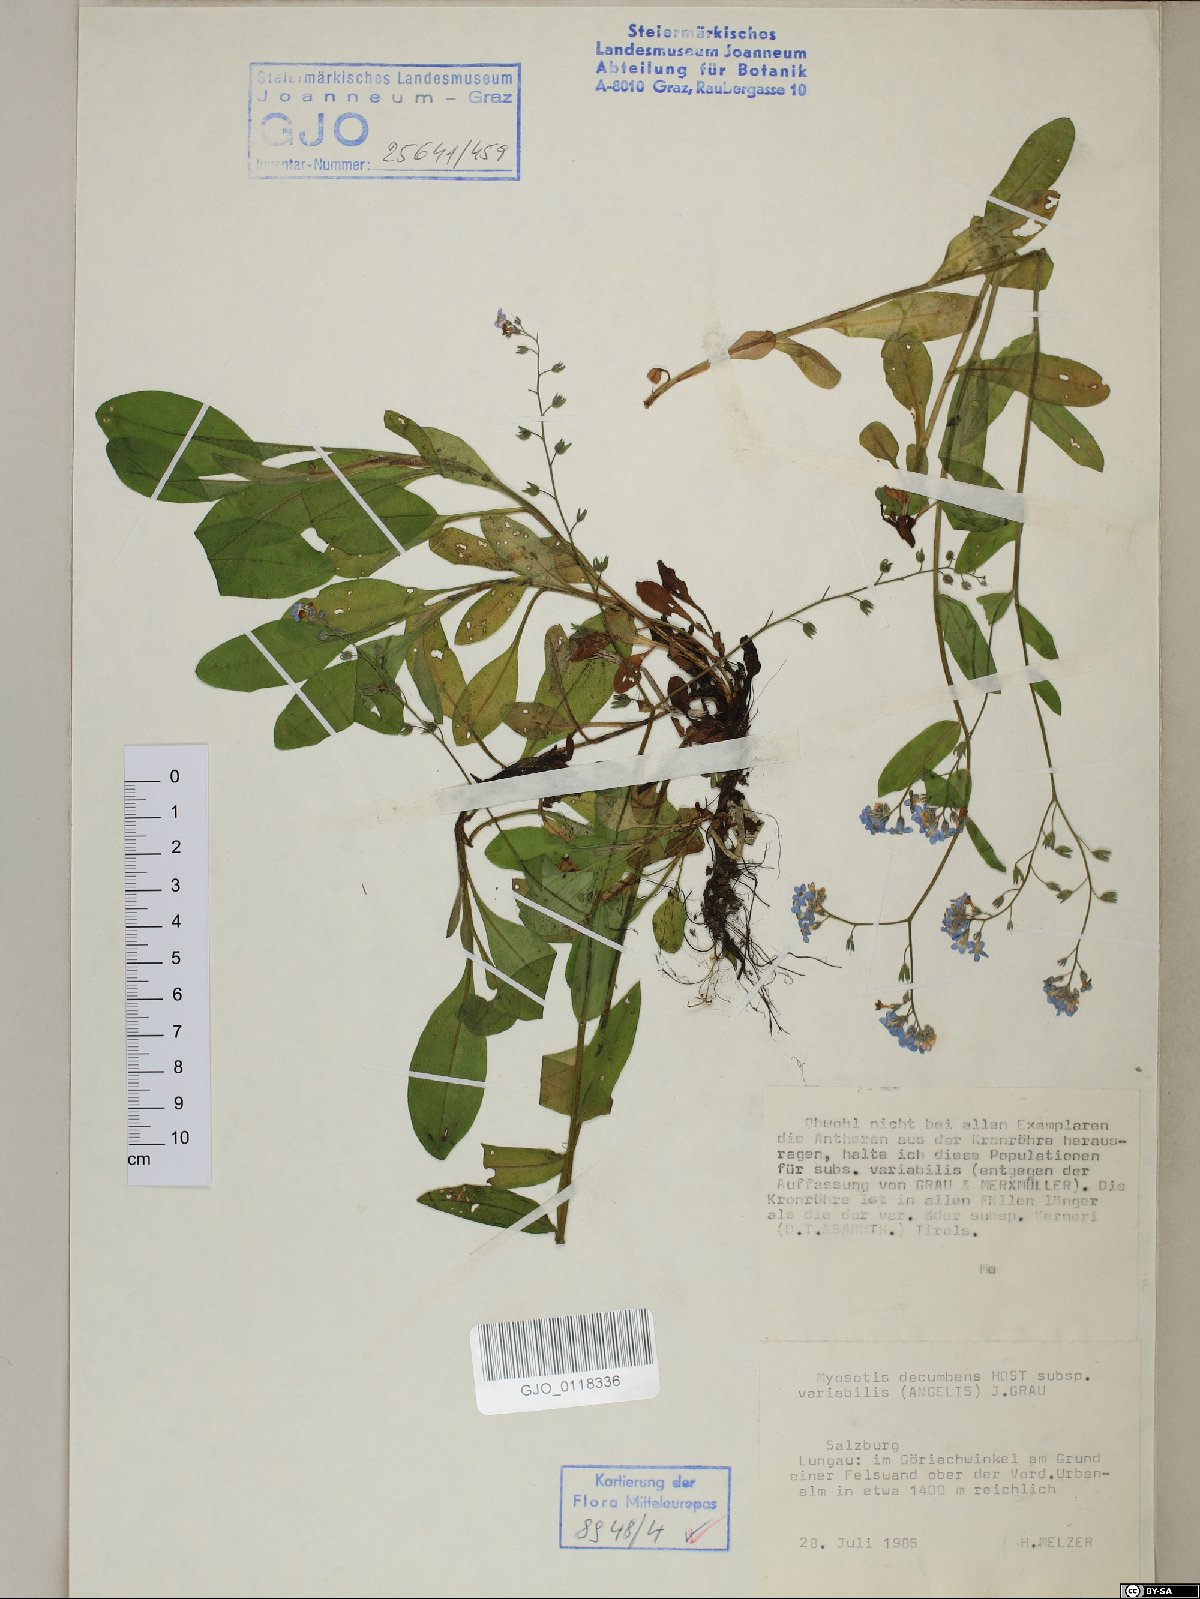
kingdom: Plantae
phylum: Tracheophyta
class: Magnoliopsida
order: Boraginales
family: Boraginaceae
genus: Myosotis
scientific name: Myosotis decumbens
